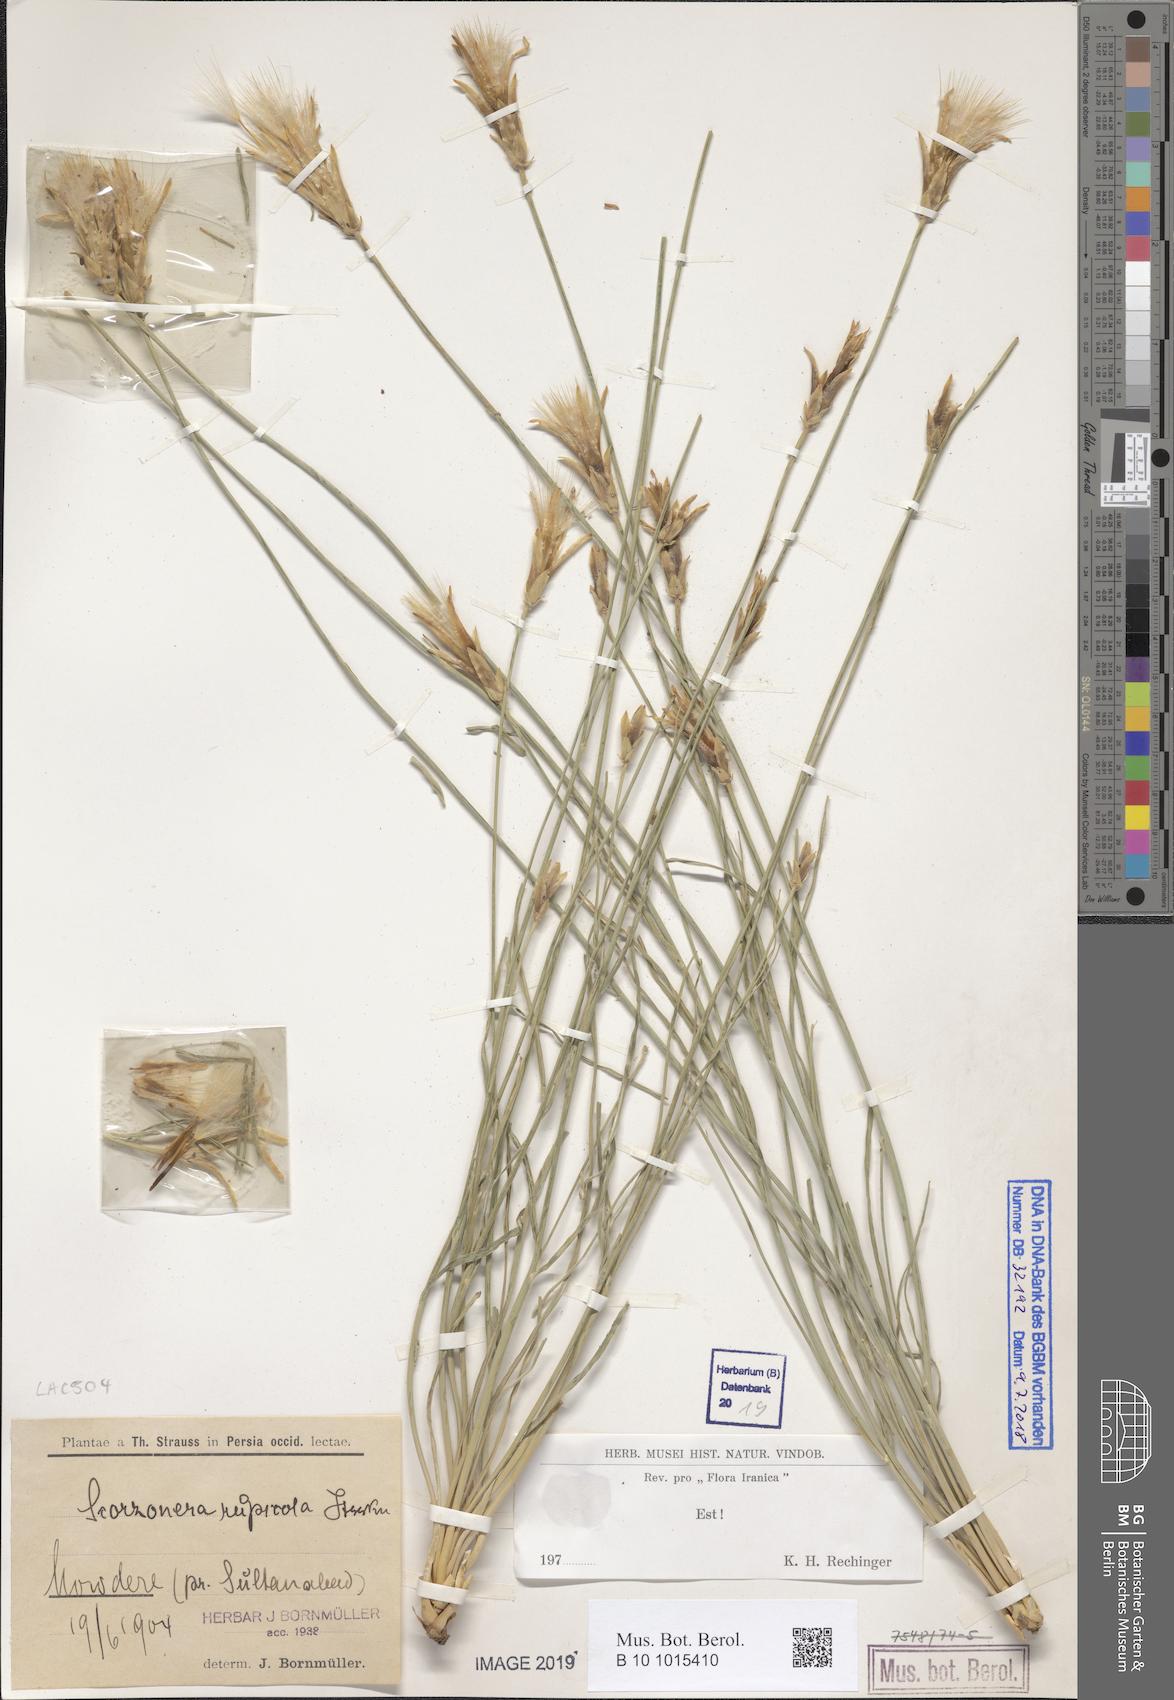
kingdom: Plantae
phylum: Tracheophyta
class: Magnoliopsida
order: Asterales
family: Asteraceae
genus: Scorzonera
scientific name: Scorzonera rupicola
